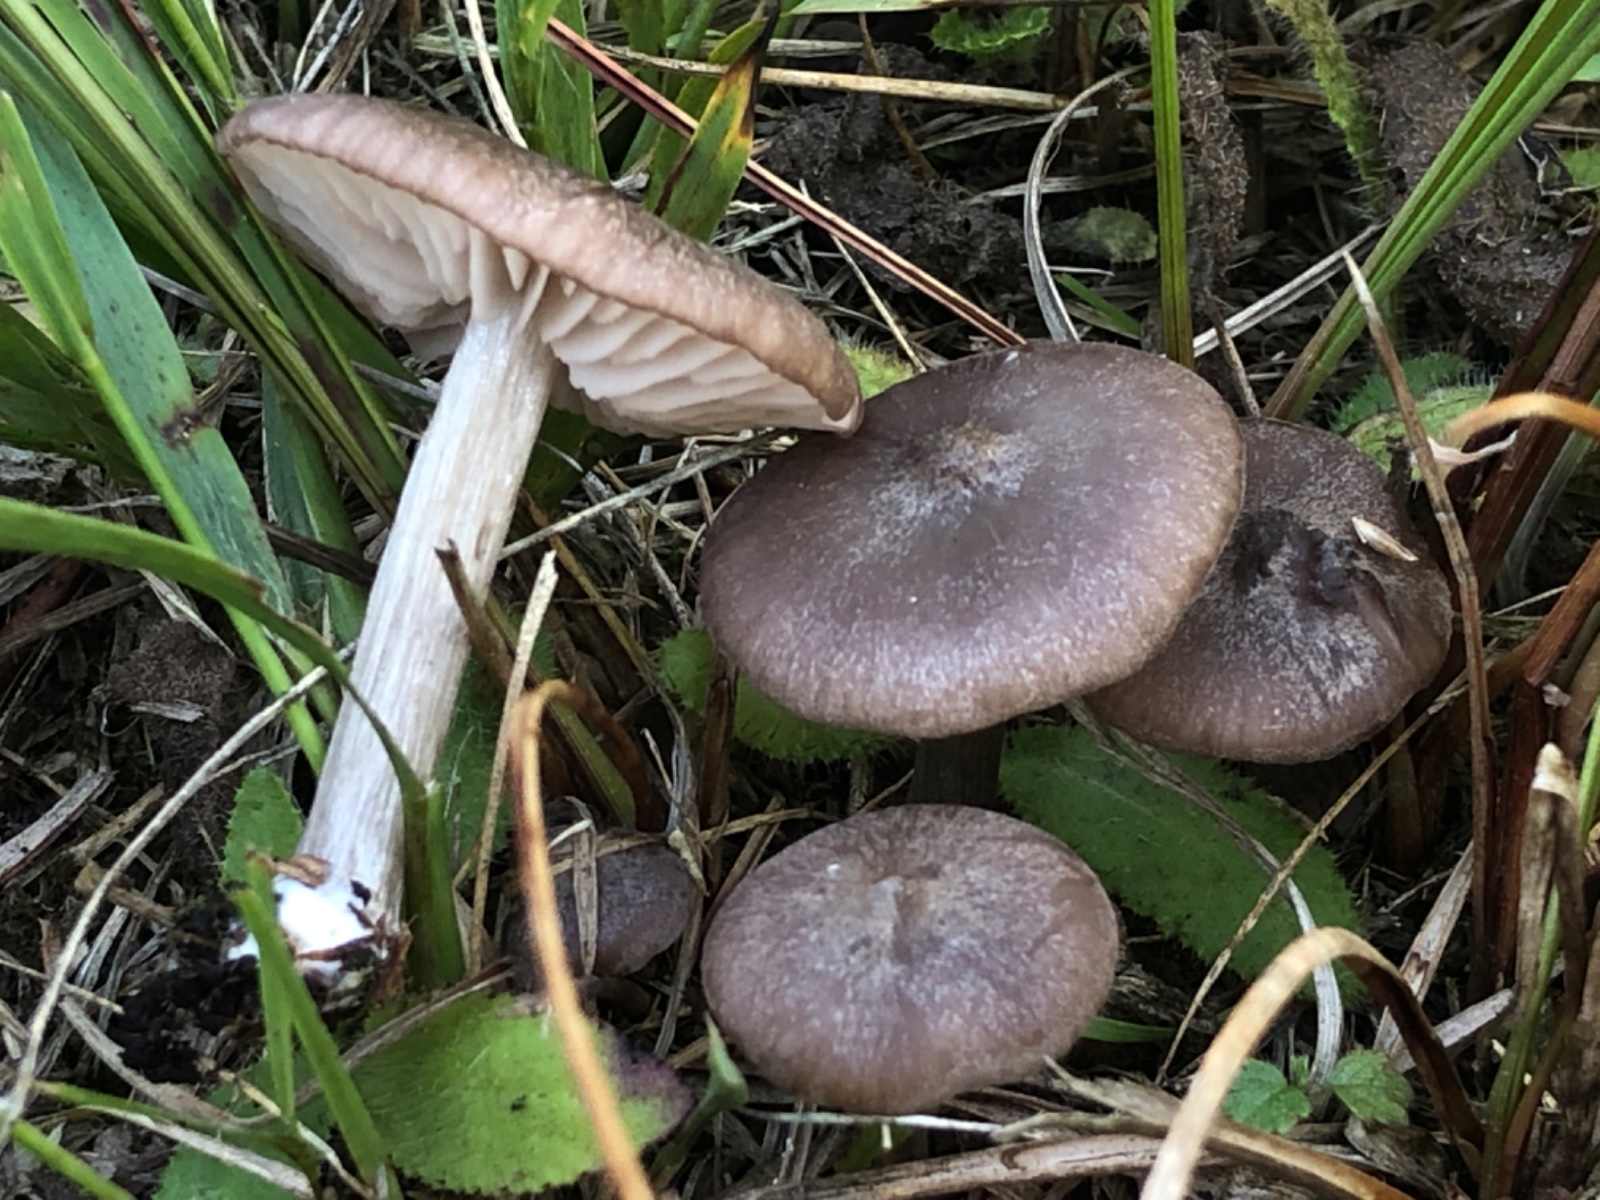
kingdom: Fungi
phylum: Basidiomycota
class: Agaricomycetes
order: Agaricales
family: Entolomataceae
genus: Entoloma
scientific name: Entoloma elodes
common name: mørkægget rødblad
